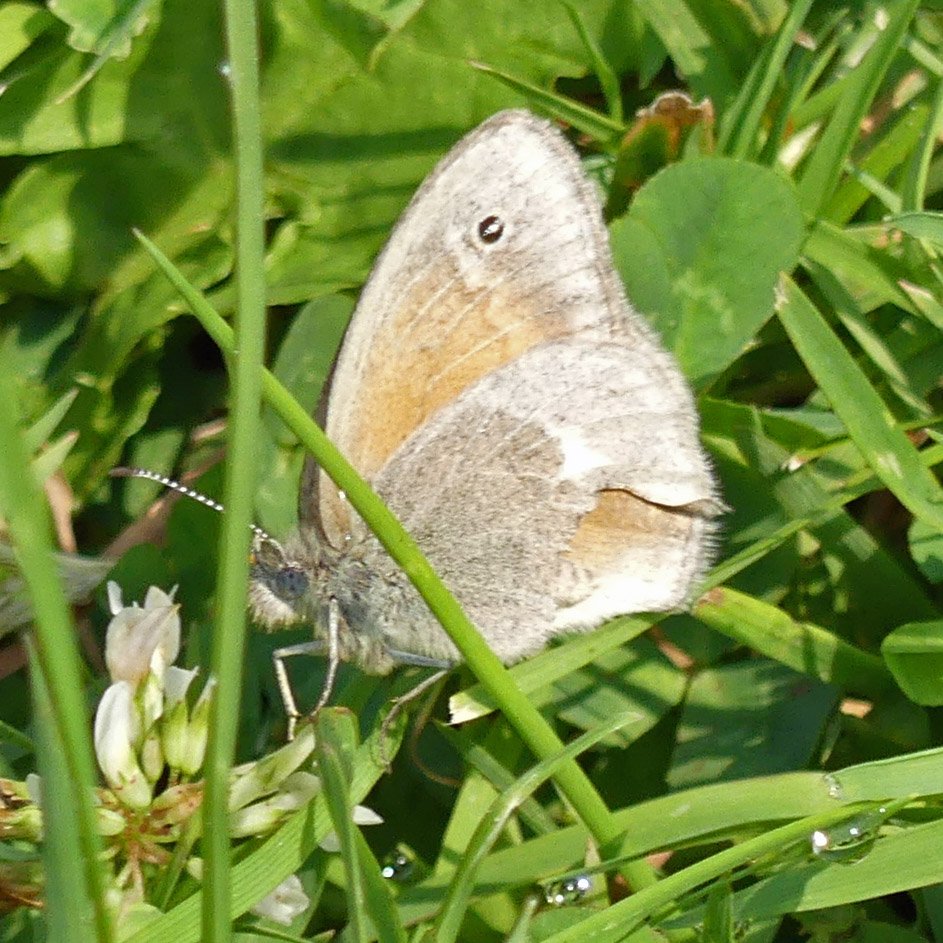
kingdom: Animalia
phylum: Arthropoda
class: Insecta
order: Lepidoptera
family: Nymphalidae
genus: Coenonympha
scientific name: Coenonympha tullia
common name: Large Heath
